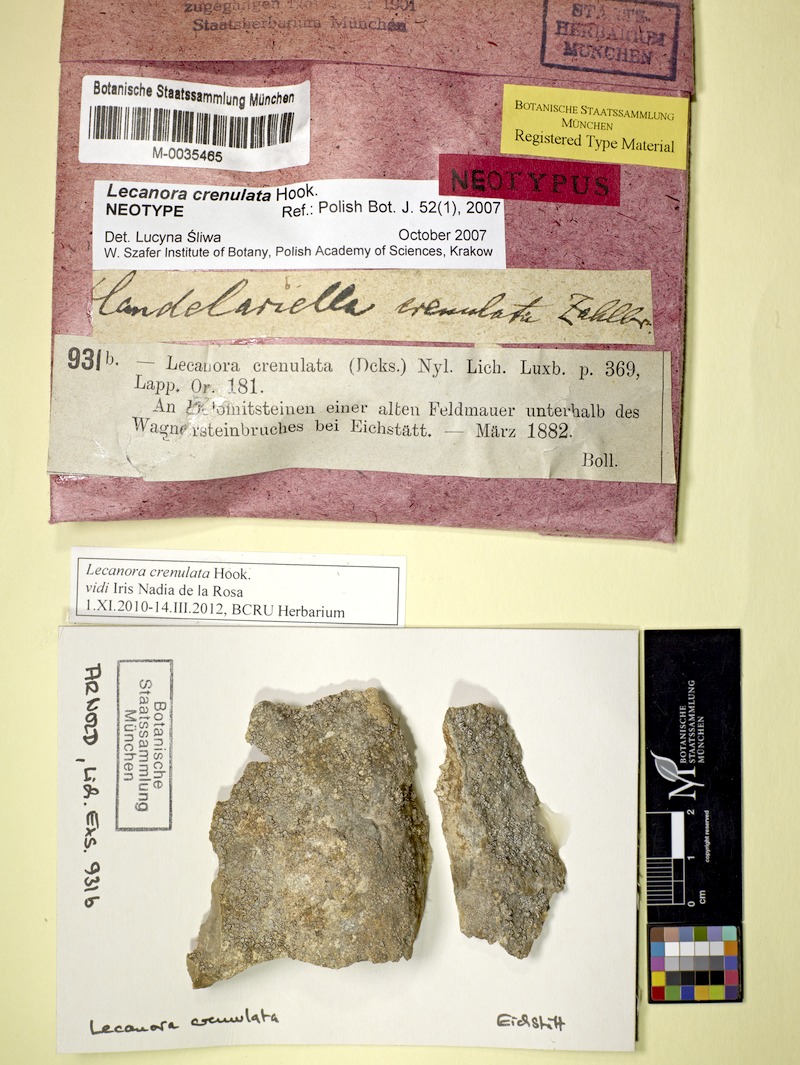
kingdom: Fungi
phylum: Ascomycota
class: Lecanoromycetes
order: Lecanorales
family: Lecanoraceae
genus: Myriolecis
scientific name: Myriolecis crenulata
